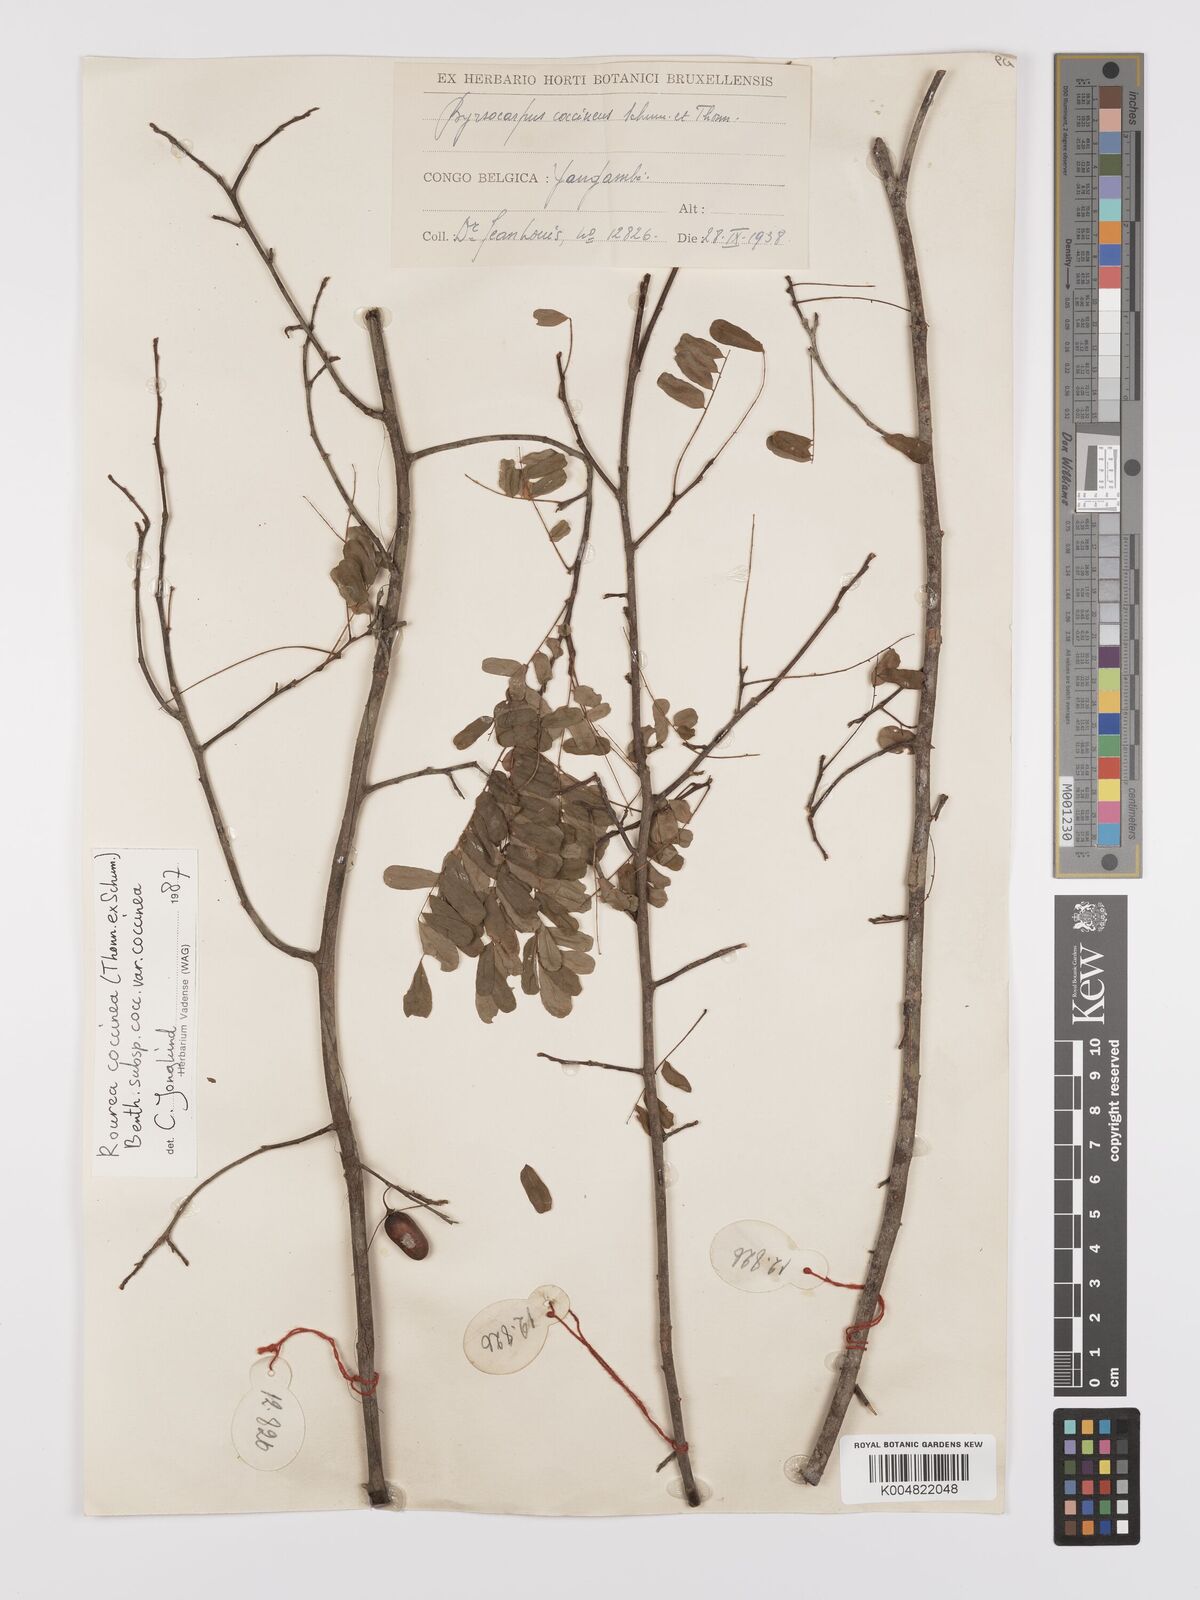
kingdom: Plantae
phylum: Tracheophyta
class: Magnoliopsida
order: Oxalidales
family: Connaraceae
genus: Rourea
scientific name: Rourea coccinea
